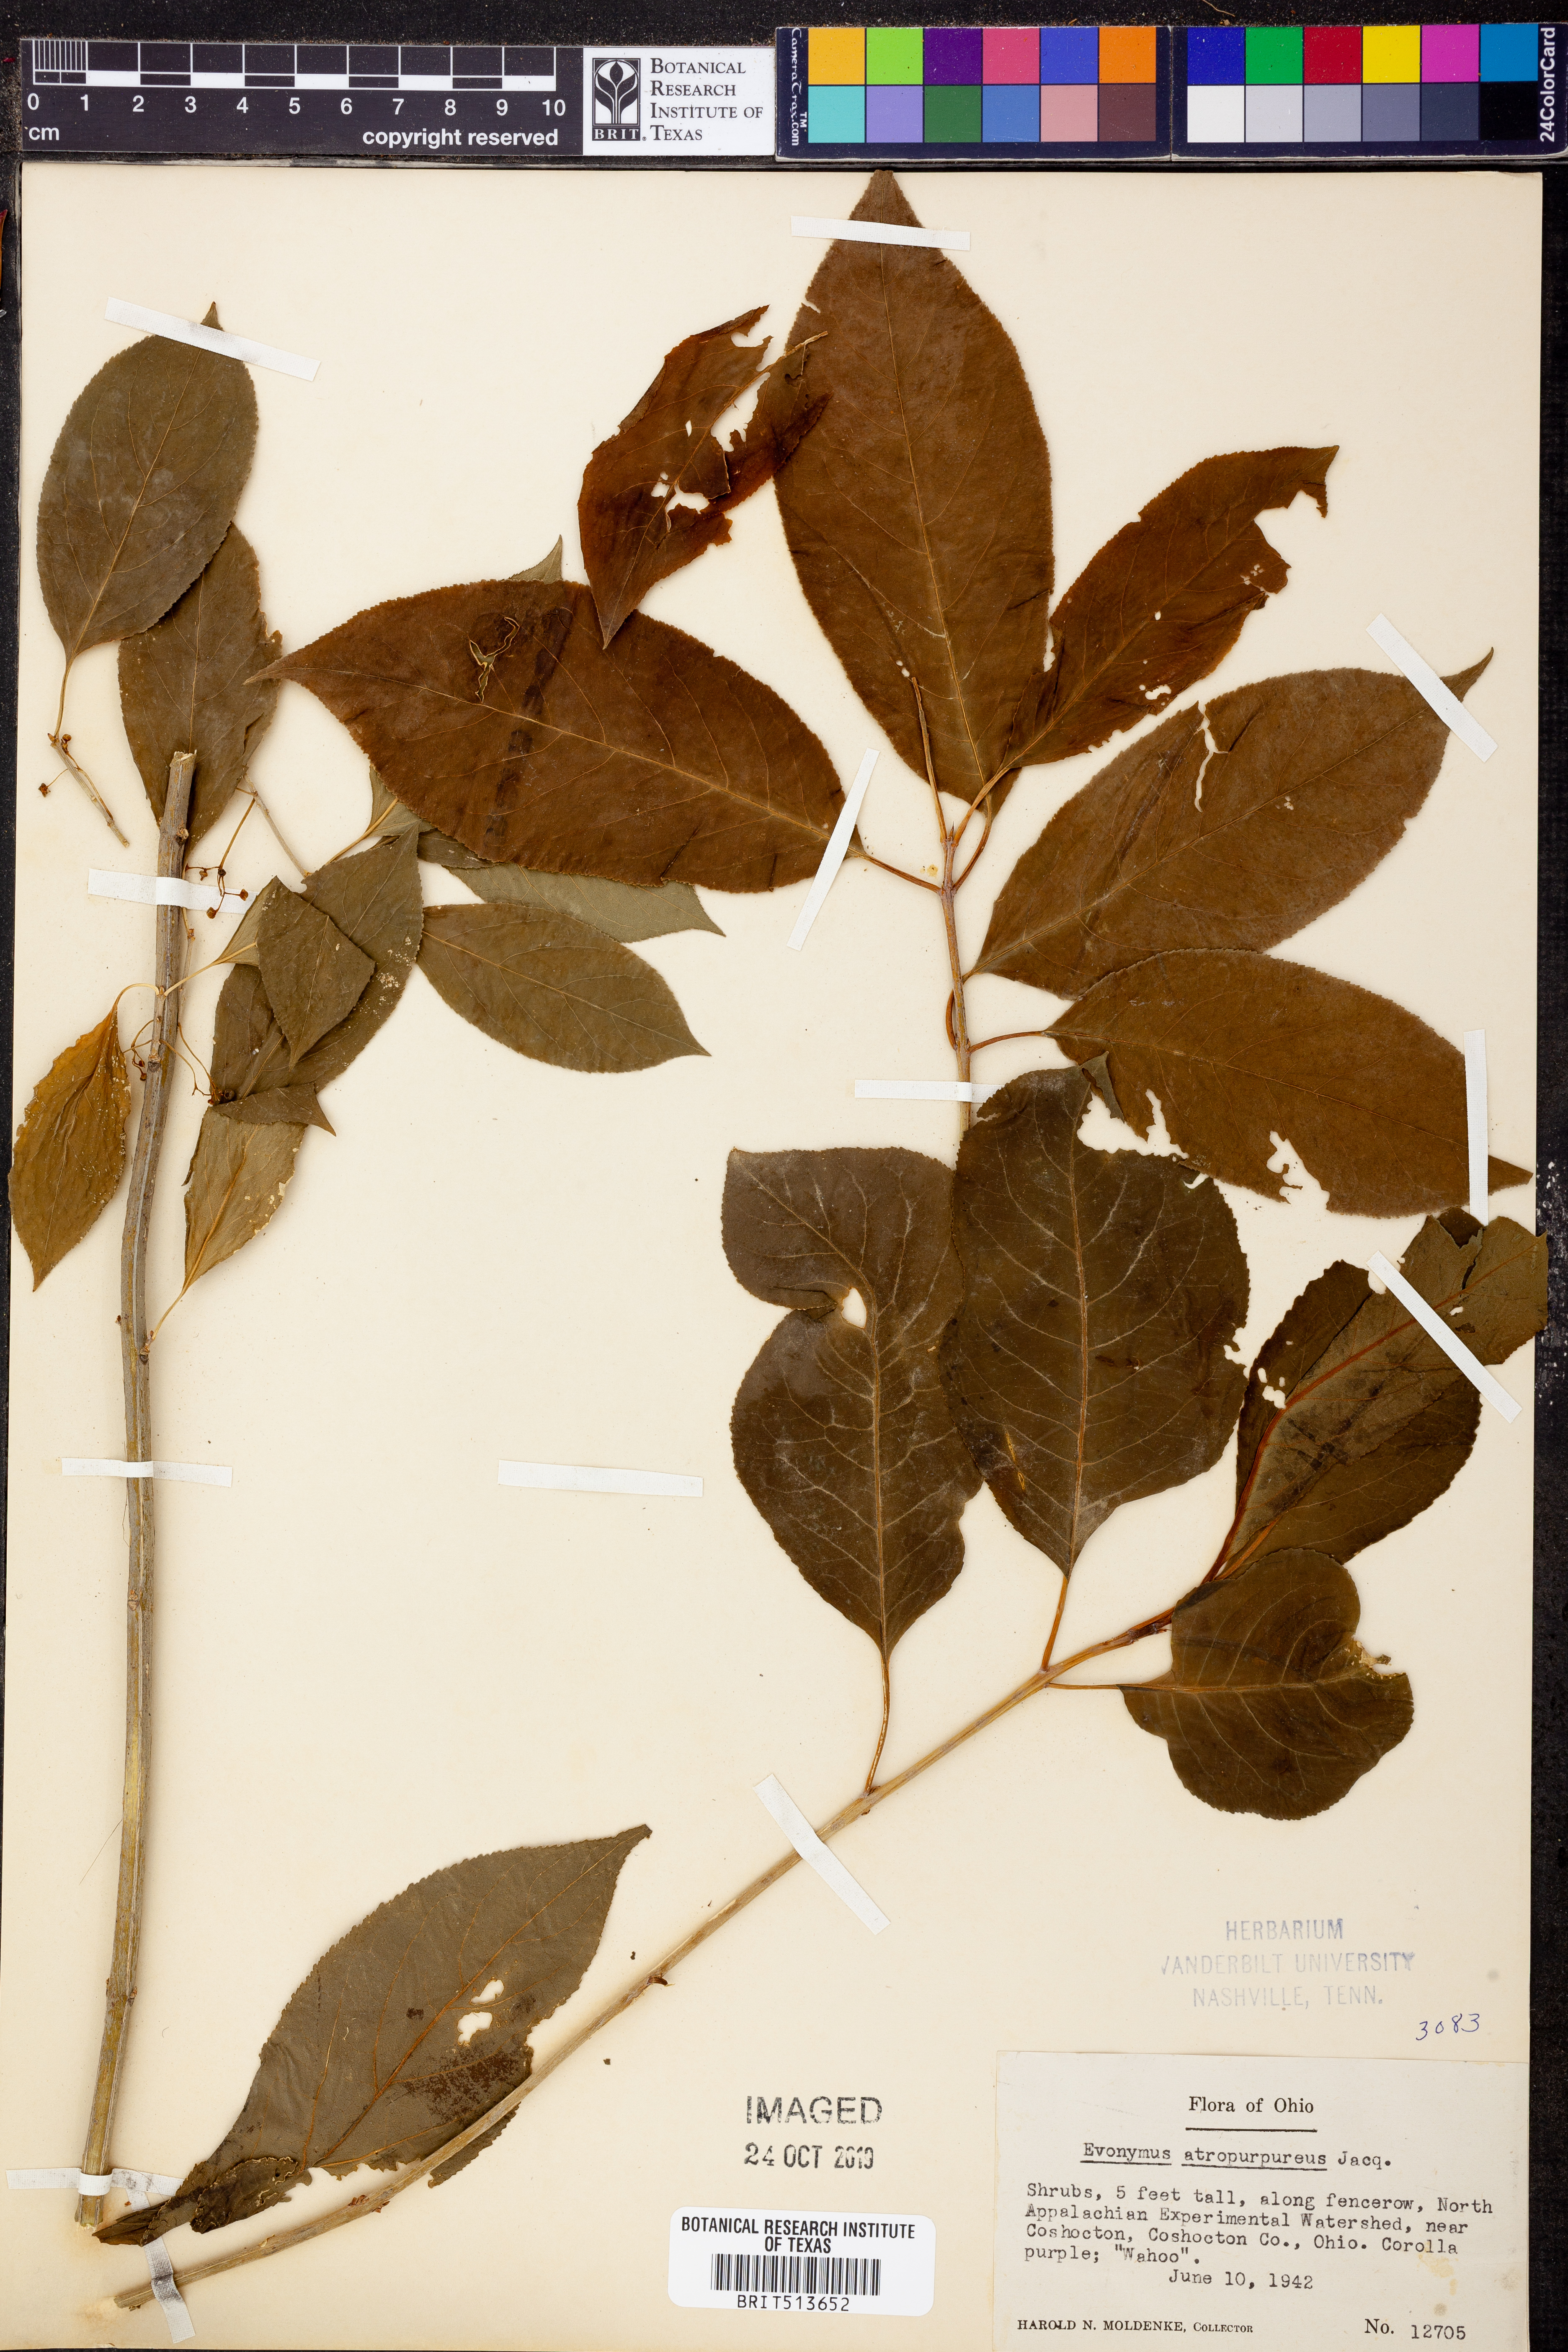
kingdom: Plantae
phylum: Tracheophyta
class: Magnoliopsida
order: Celastrales
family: Celastraceae
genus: Euonymus
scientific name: Euonymus atropurpureus
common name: Eastern wahoo
